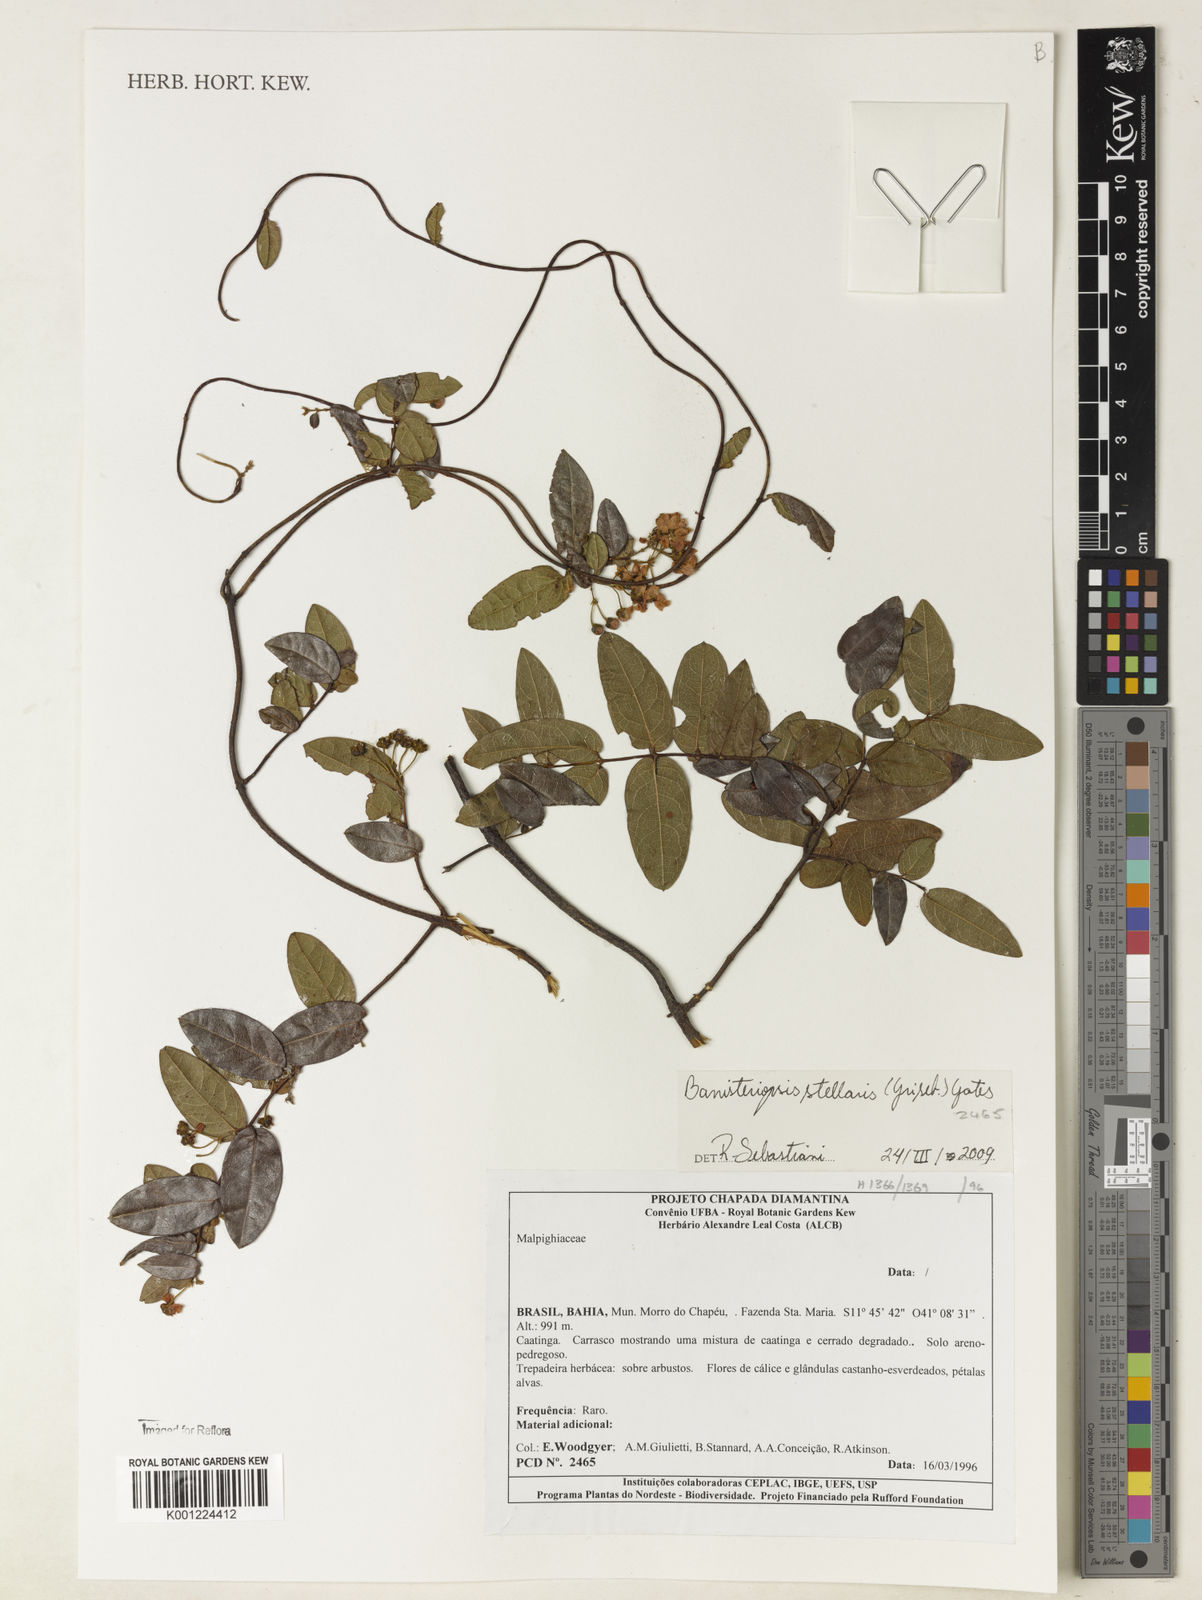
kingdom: Plantae
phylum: Tracheophyta
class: Magnoliopsida
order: Malpighiales
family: Malpighiaceae
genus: Banisteriopsis
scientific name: Banisteriopsis stellaris
